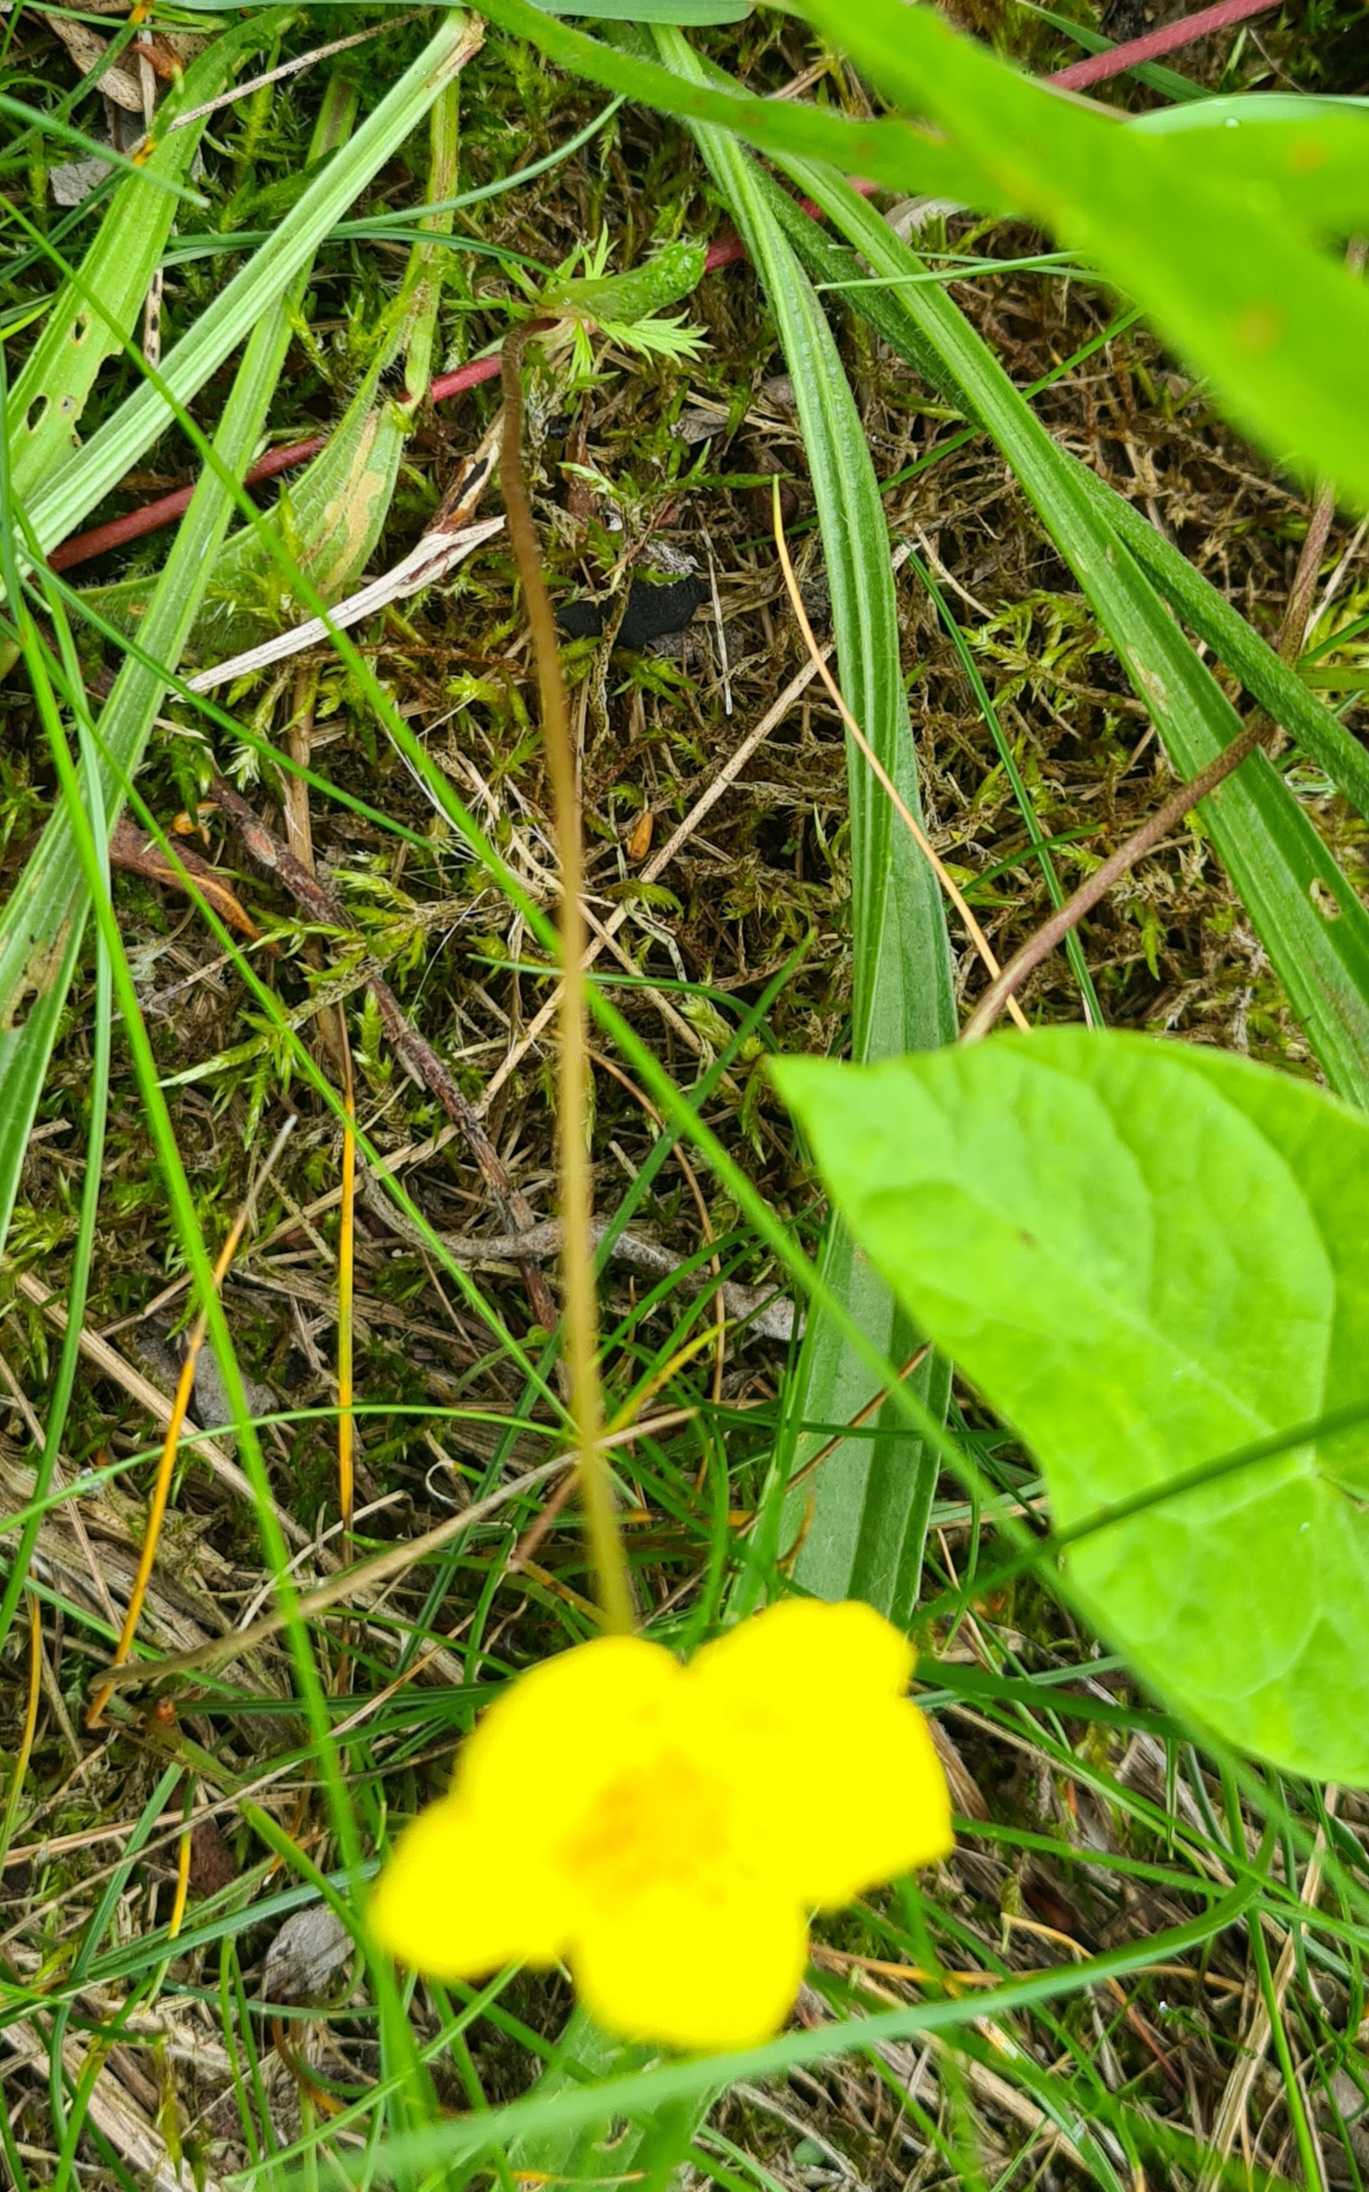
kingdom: Plantae
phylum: Tracheophyta
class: Magnoliopsida
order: Rosales
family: Rosaceae
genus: Potentilla
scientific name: Potentilla reptans
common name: Krybende potentil
